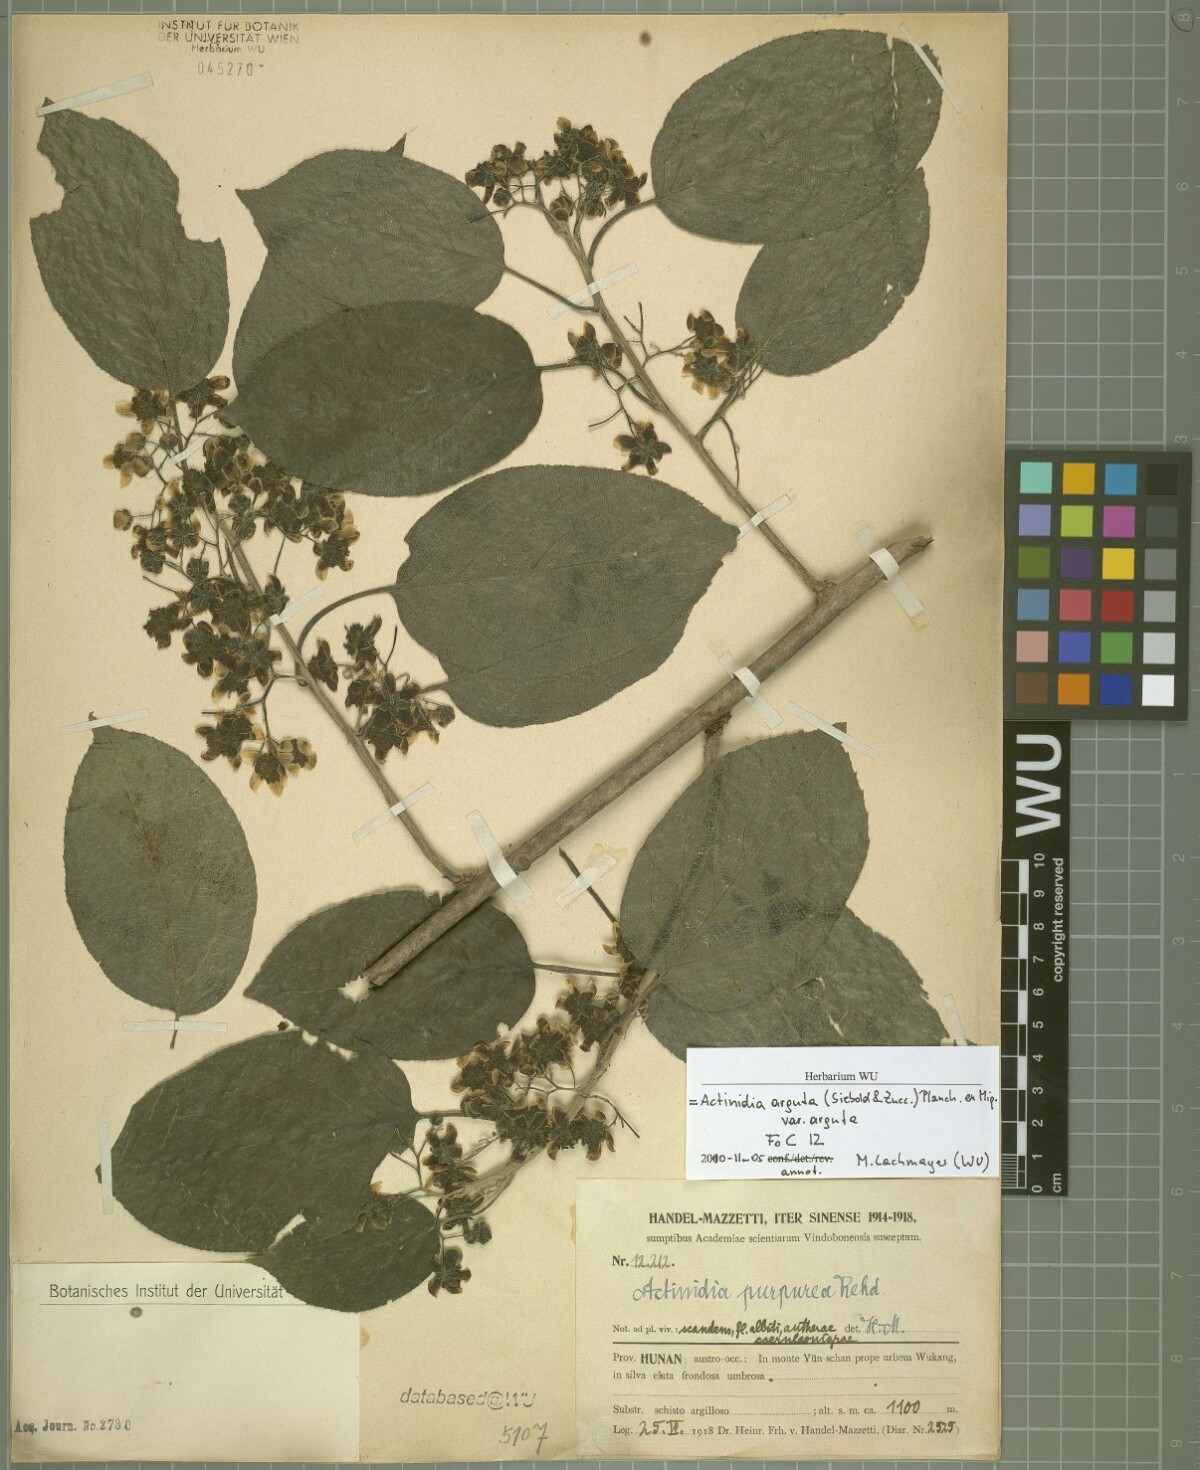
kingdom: Plantae
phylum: Tracheophyta
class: Magnoliopsida
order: Ericales
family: Actinidiaceae
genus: Actinidia
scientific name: Actinidia arguta
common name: Tara vine
